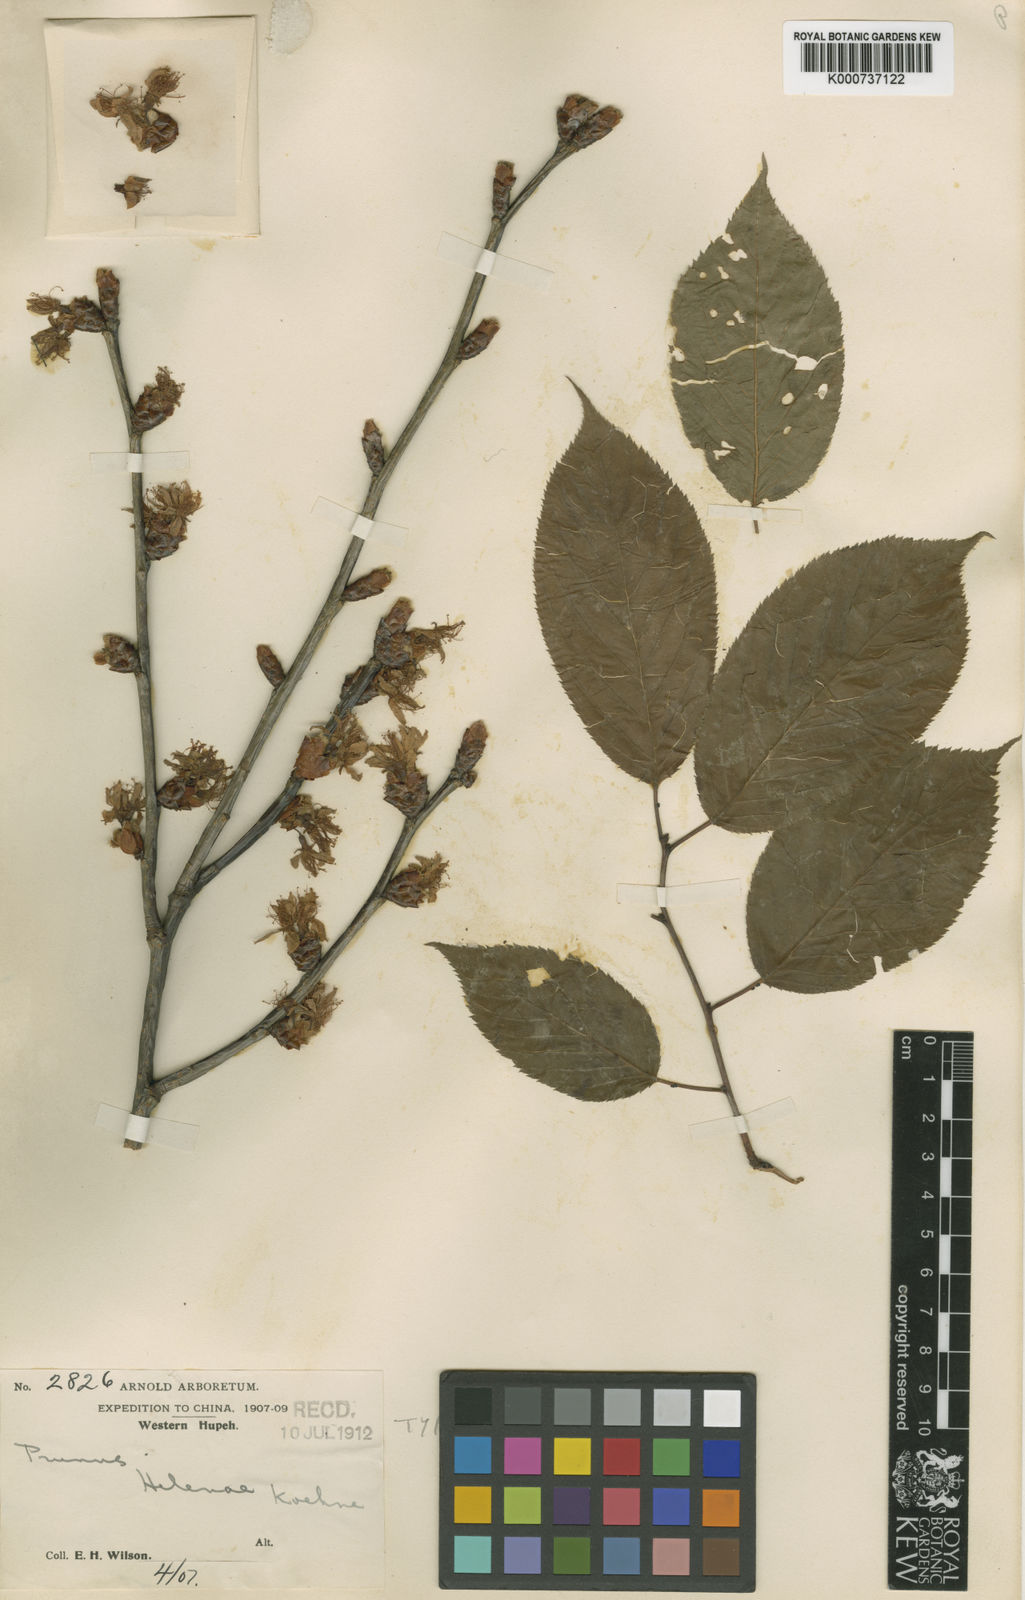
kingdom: Plantae
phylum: Tracheophyta
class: Magnoliopsida
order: Rosales
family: Rosaceae
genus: Prunus
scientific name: Prunus conradinae
